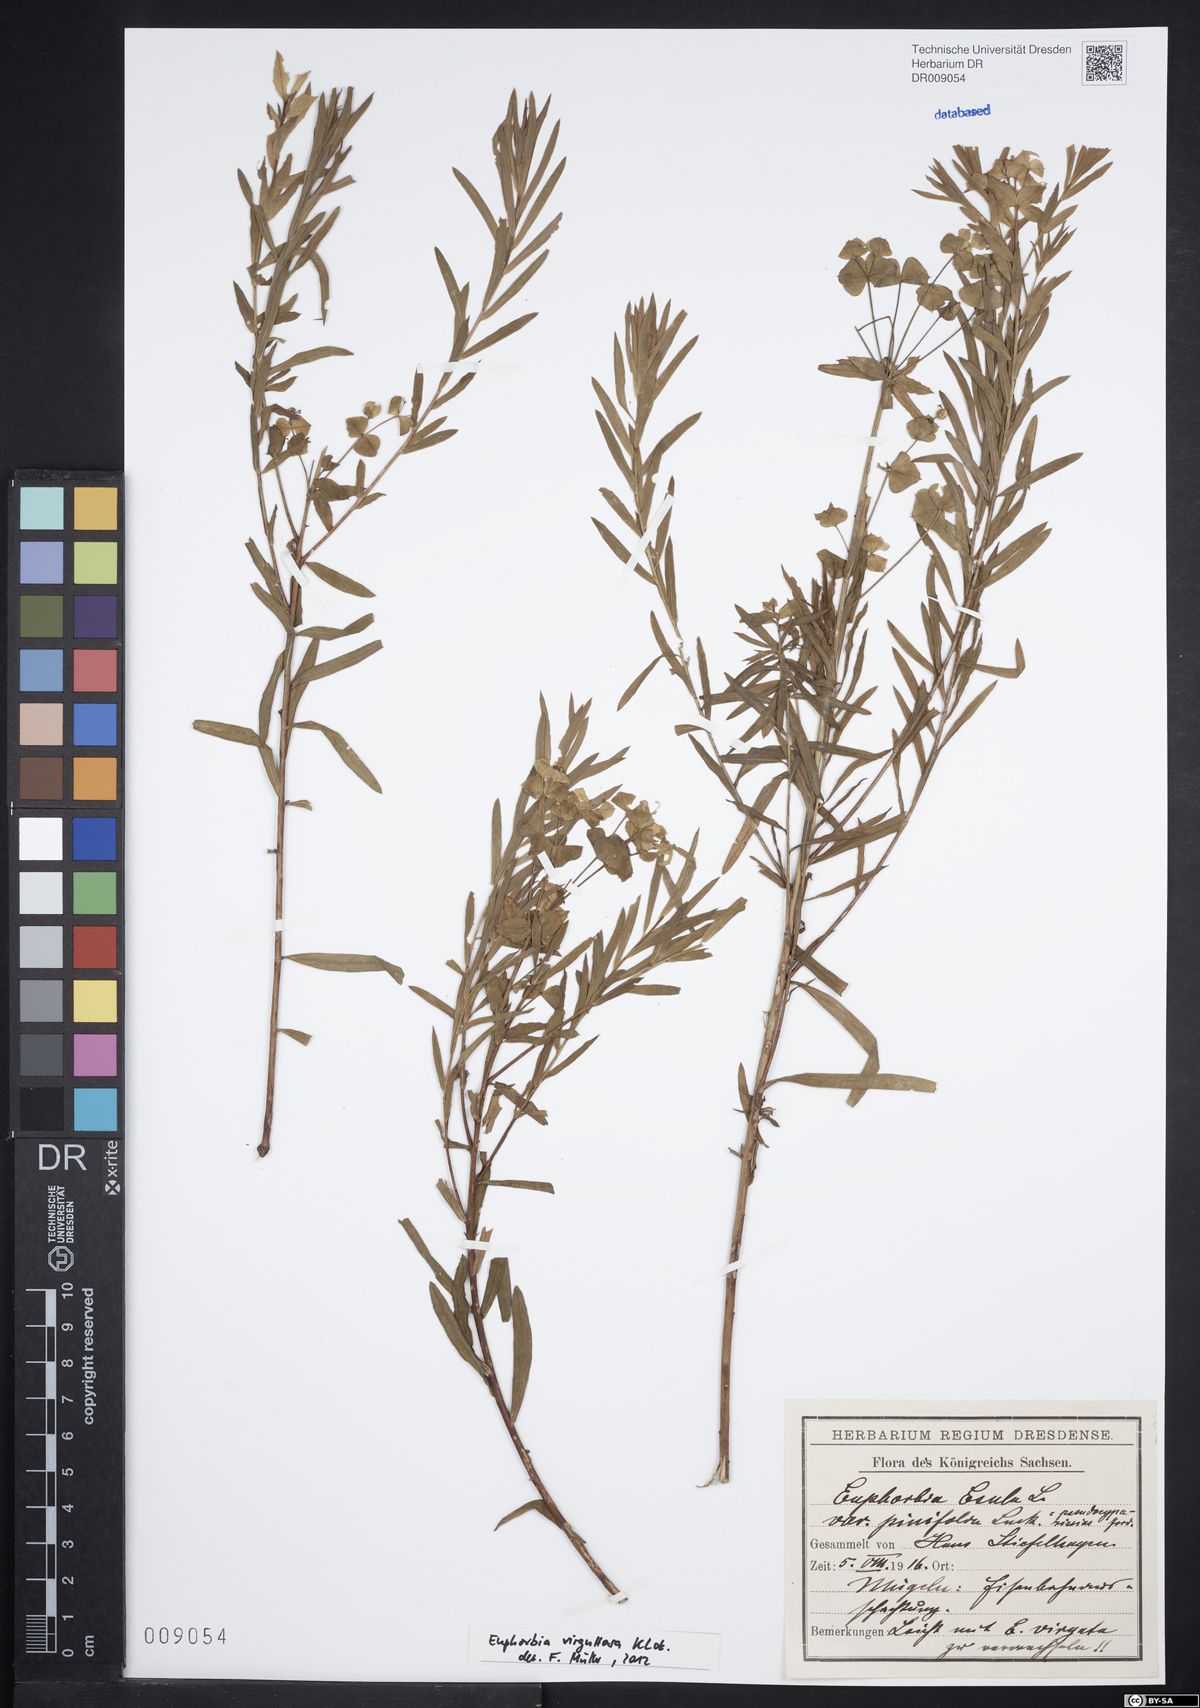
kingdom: Plantae
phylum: Tracheophyta
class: Magnoliopsida
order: Malpighiales
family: Euphorbiaceae
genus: Euphorbia
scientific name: Euphorbia saratoi
